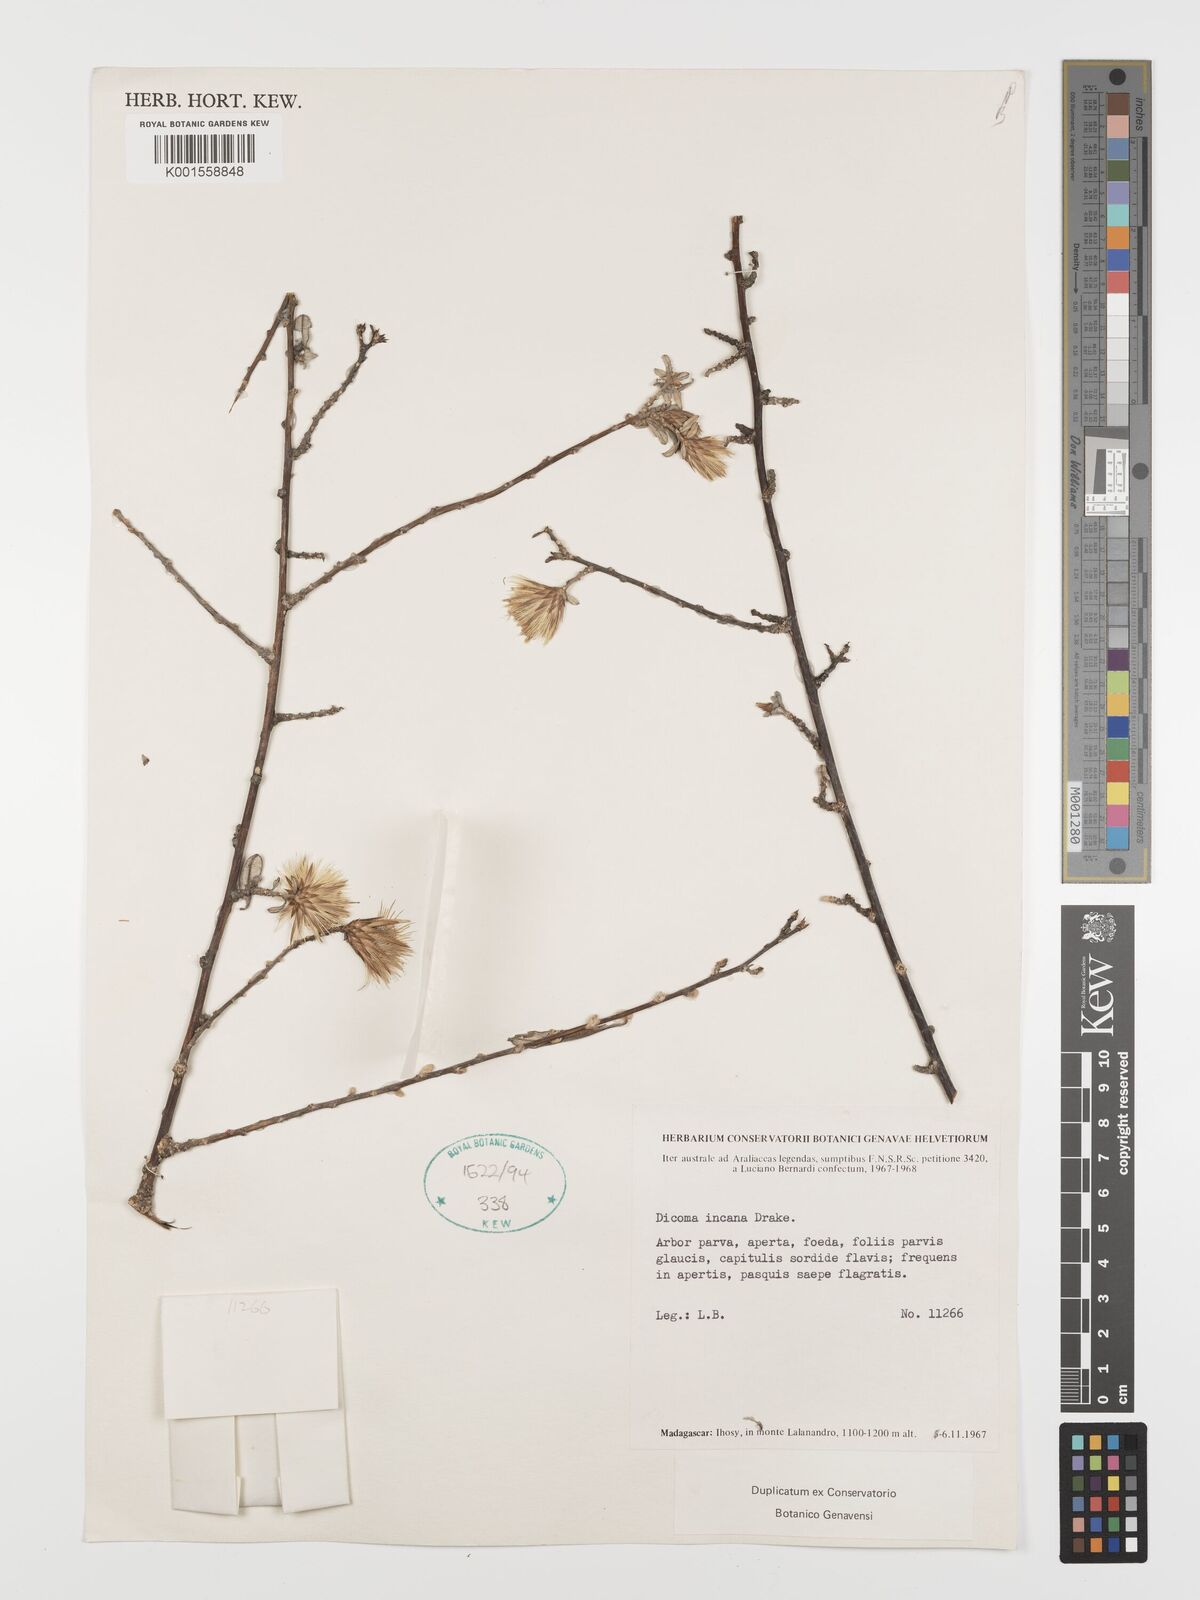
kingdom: Plantae
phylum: Tracheophyta
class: Magnoliopsida
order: Asterales
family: Asteraceae
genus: Dicoma
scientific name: Dicoma incana
